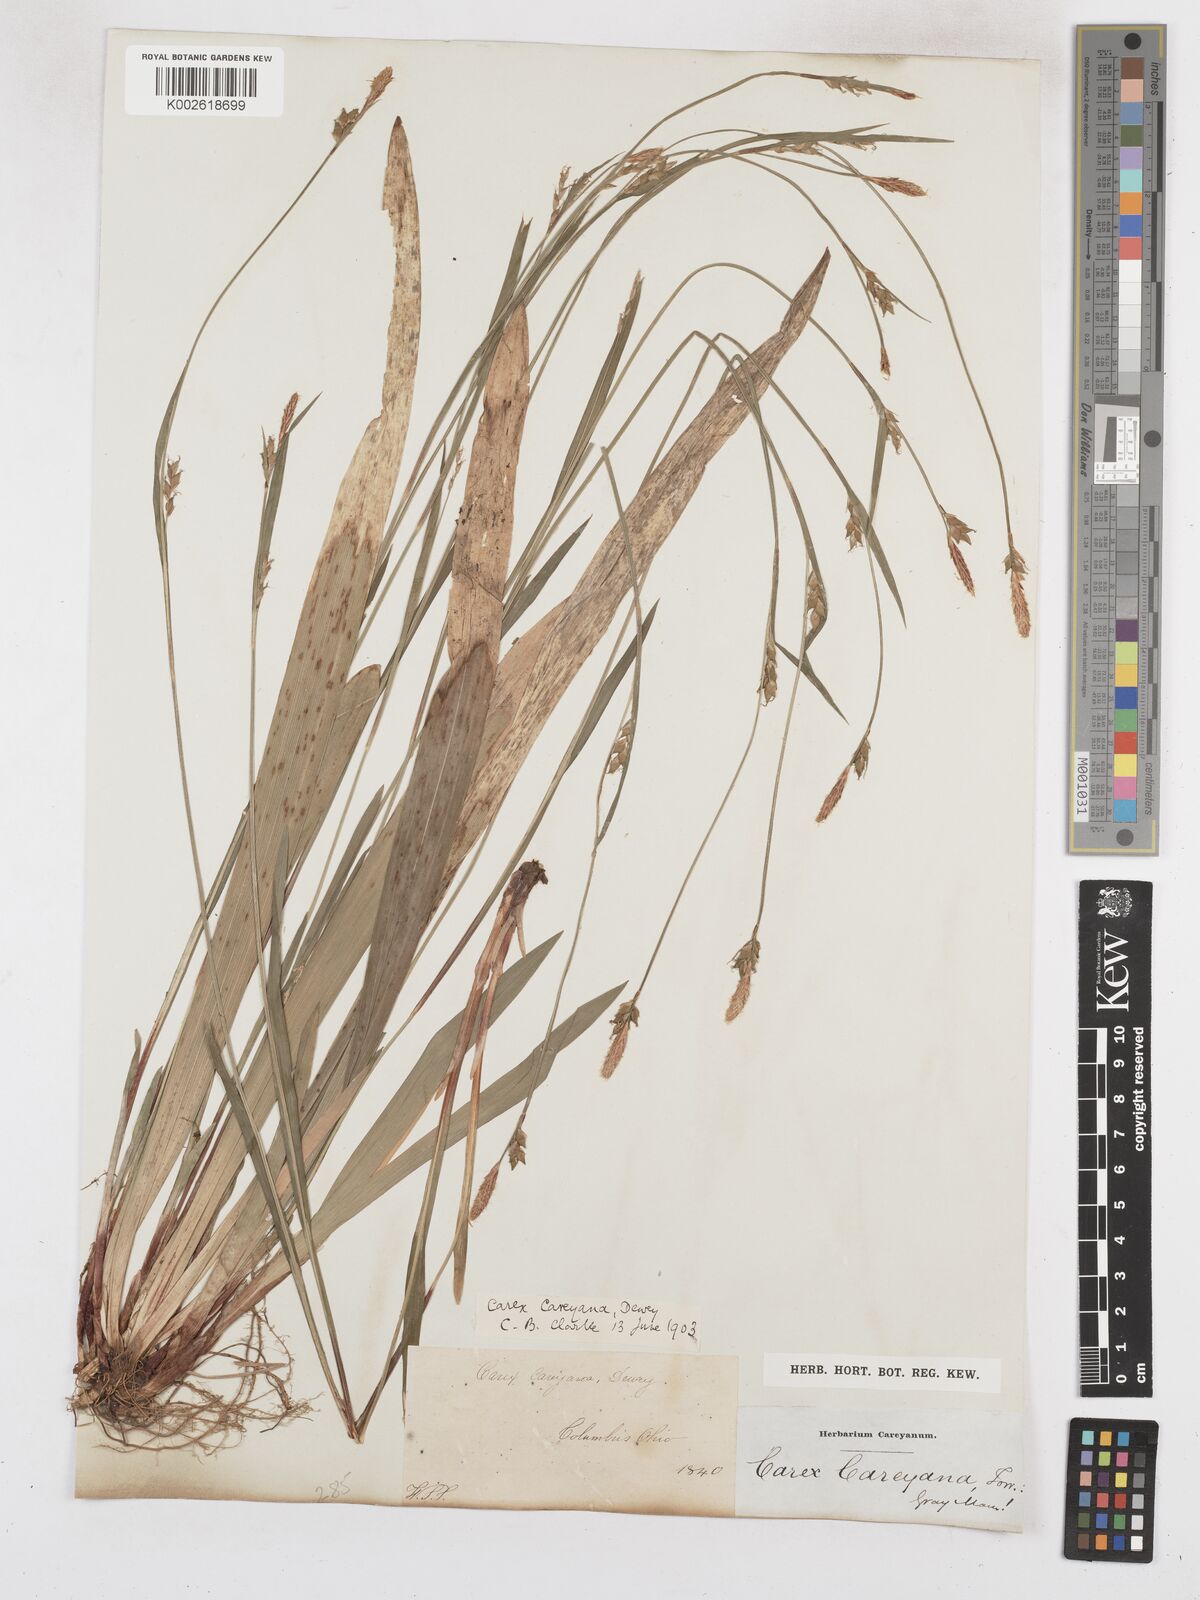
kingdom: Plantae
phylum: Tracheophyta
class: Liliopsida
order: Poales
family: Cyperaceae
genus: Carex
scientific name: Carex careyana
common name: Carey's sedge
